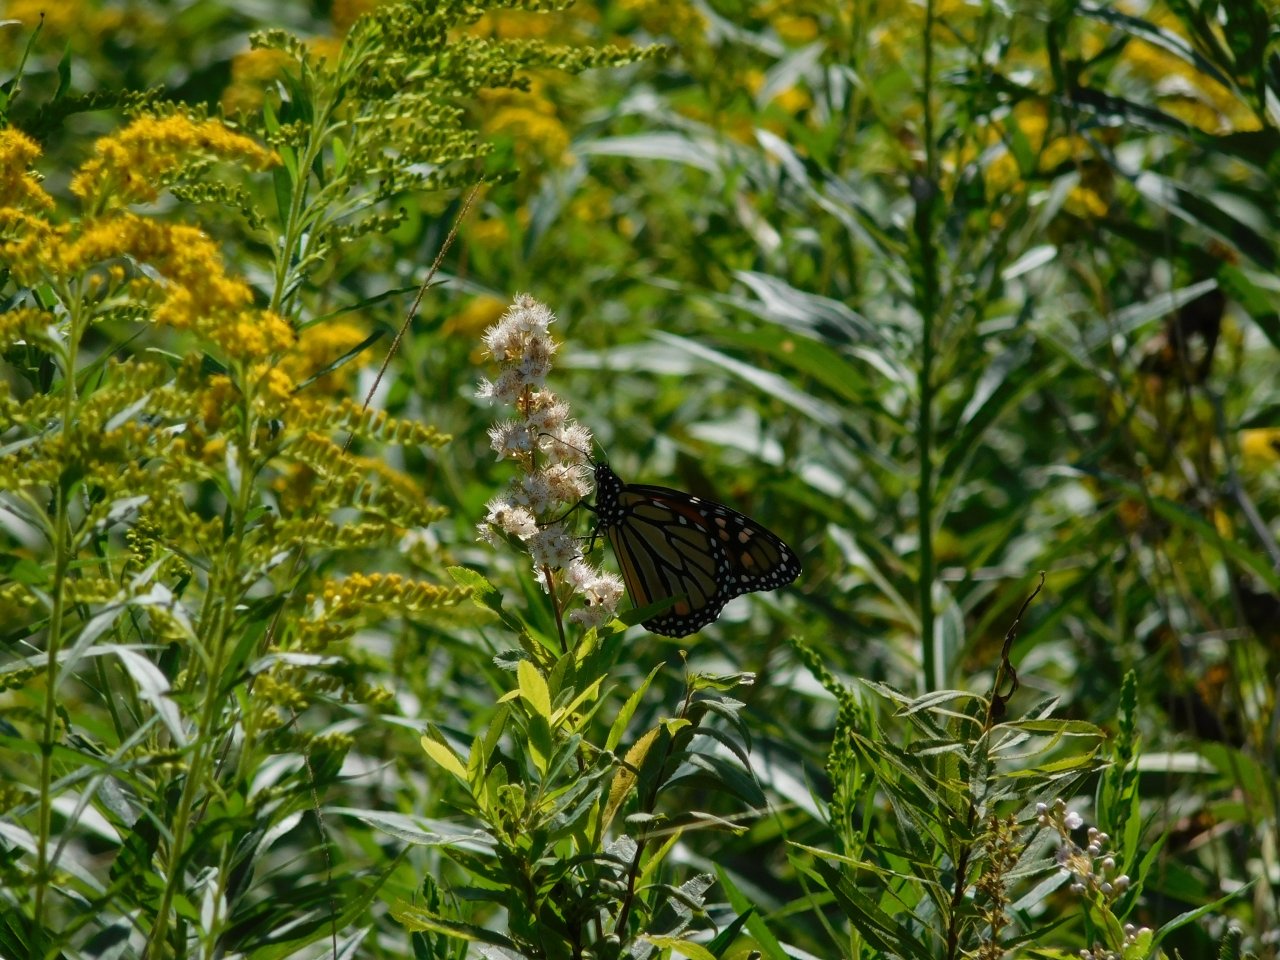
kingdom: Animalia
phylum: Arthropoda
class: Insecta
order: Lepidoptera
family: Nymphalidae
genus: Danaus
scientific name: Danaus plexippus
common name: Monarch
